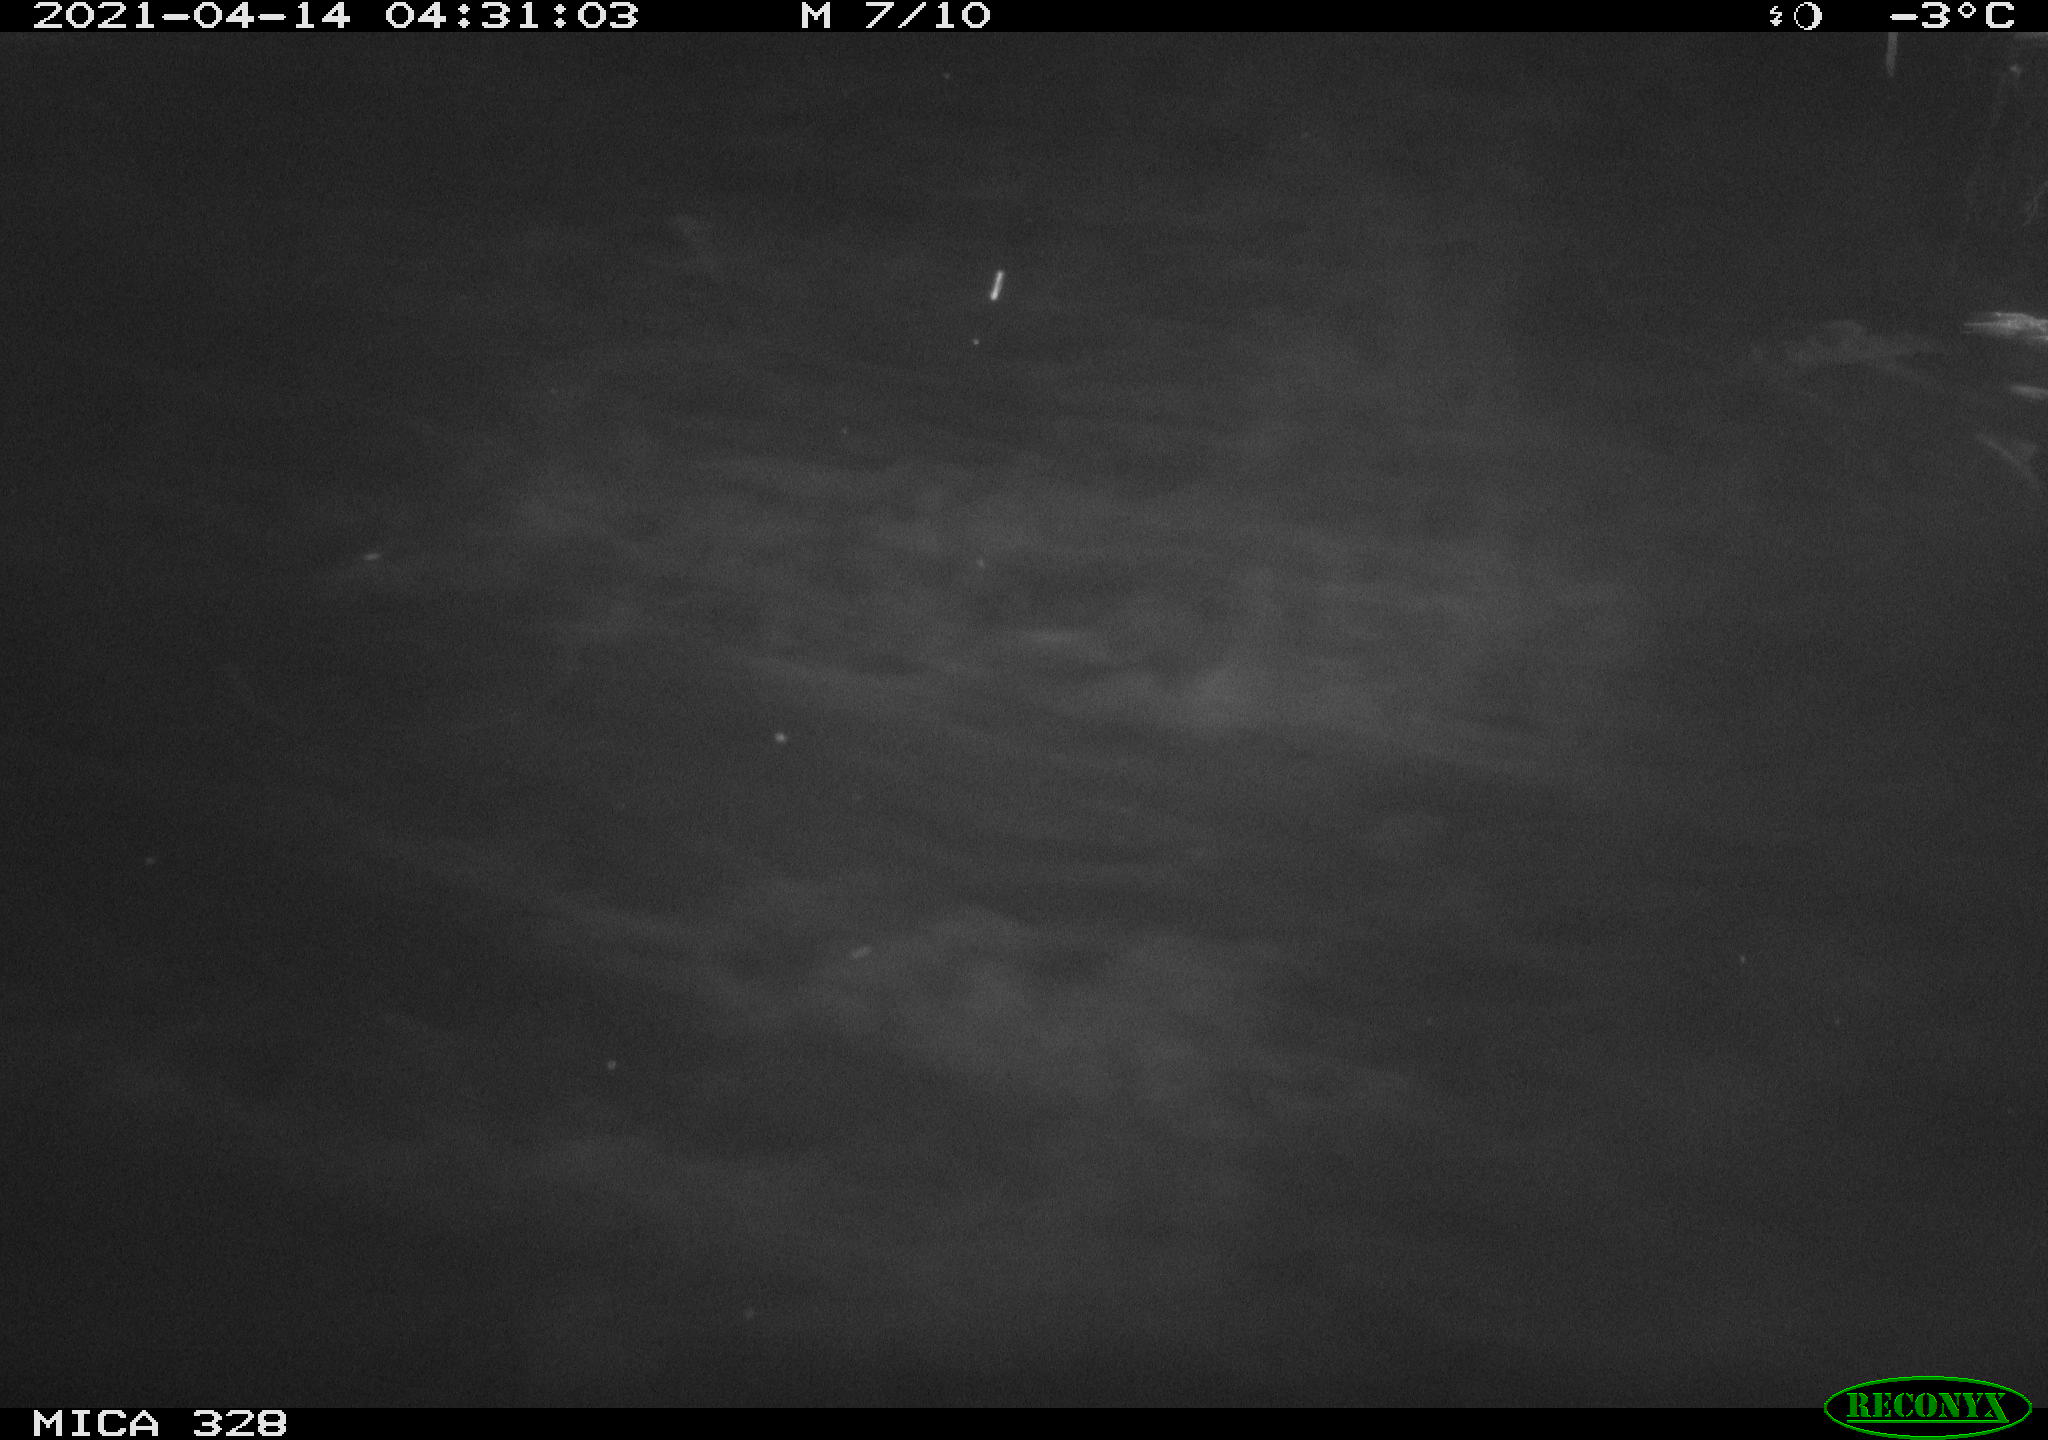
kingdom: Animalia
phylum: Chordata
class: Mammalia
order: Rodentia
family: Cricetidae
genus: Ondatra
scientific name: Ondatra zibethicus
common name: Muskrat
